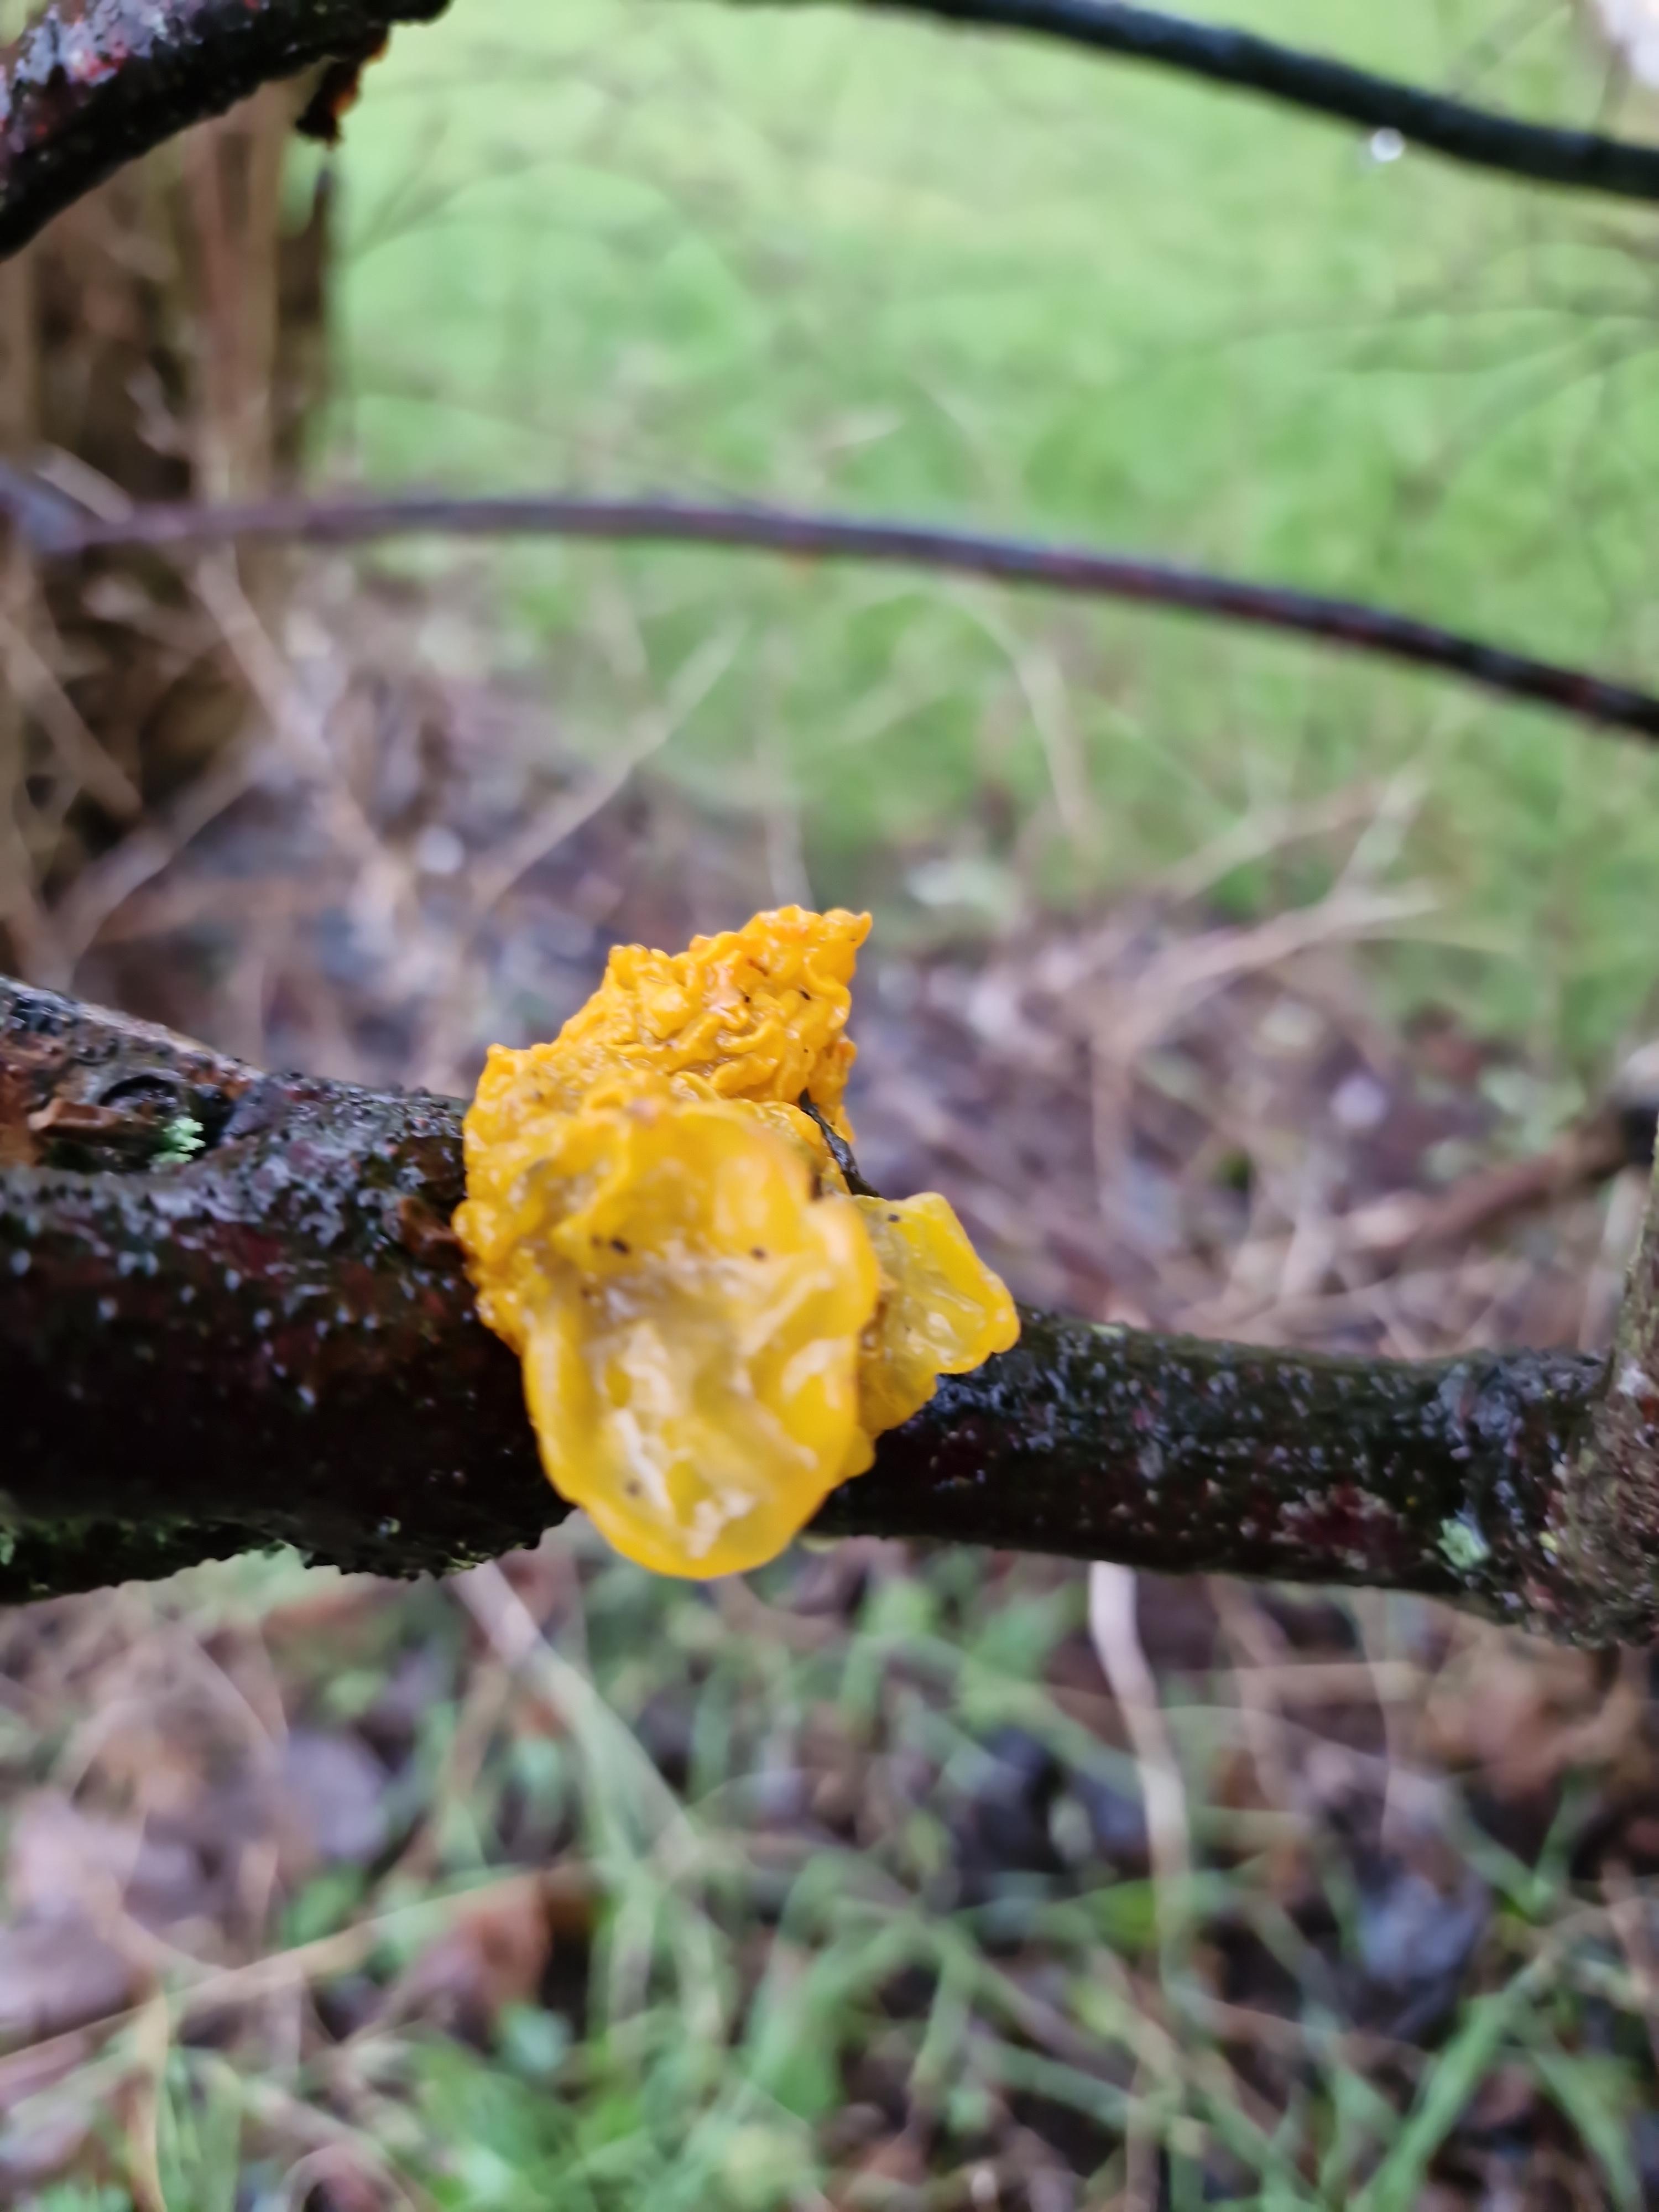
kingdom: Fungi
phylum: Basidiomycota
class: Tremellomycetes
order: Tremellales
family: Tremellaceae
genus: Tremella
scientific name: Tremella mesenterica
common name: gul bævresvamp
